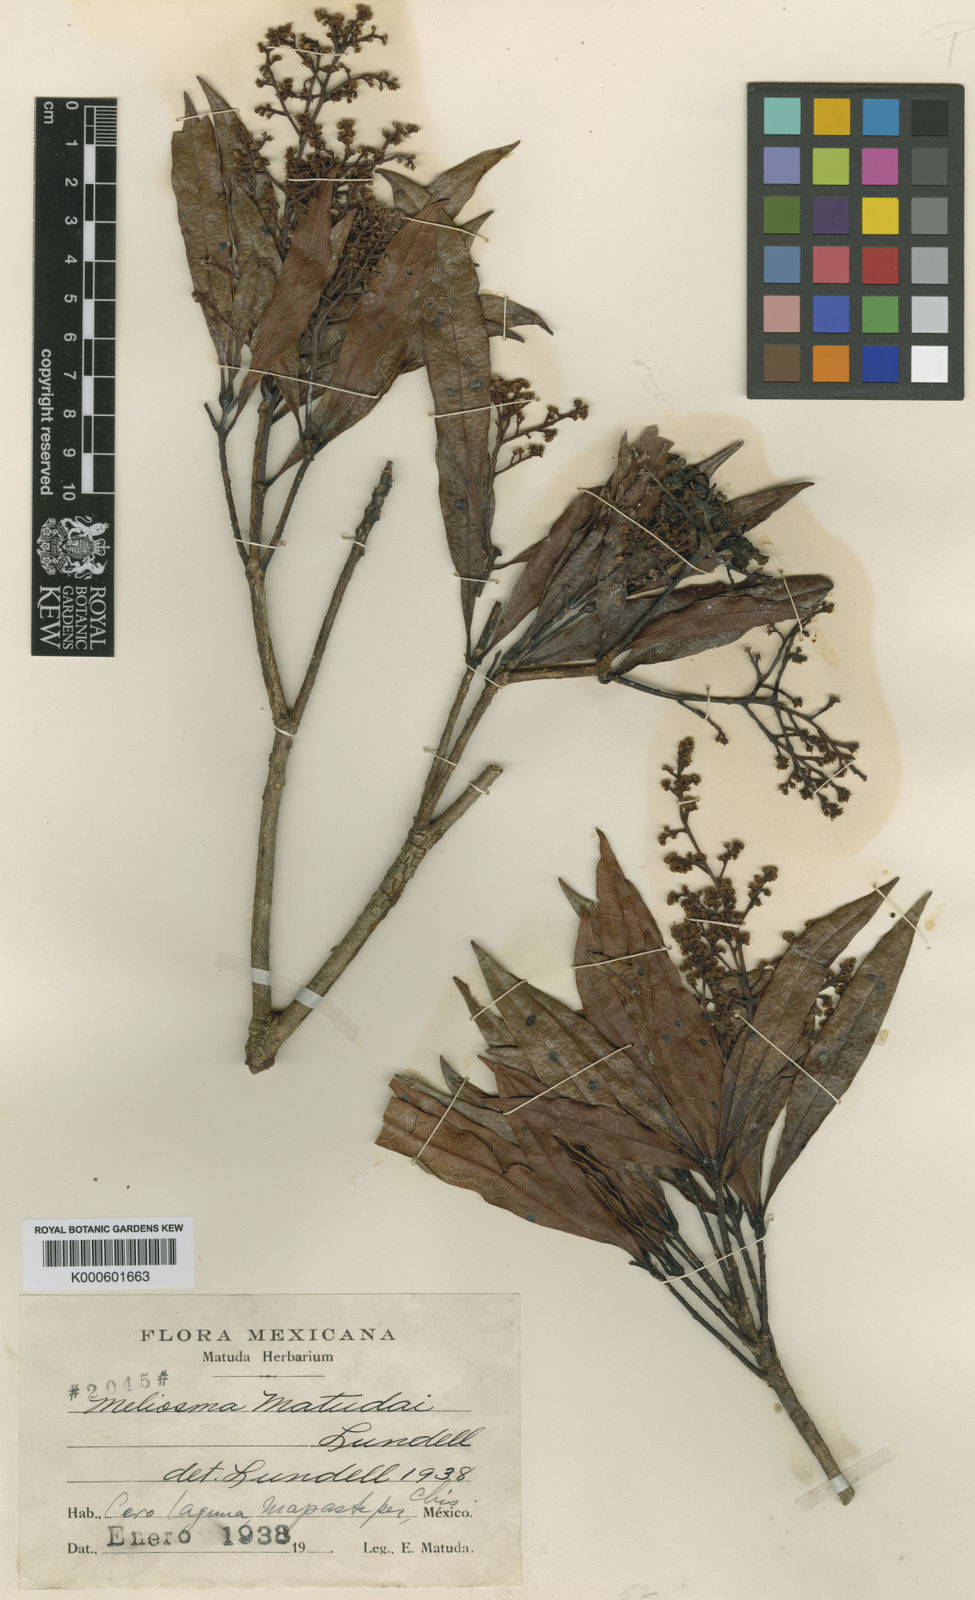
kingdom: Plantae
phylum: Tracheophyta
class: Magnoliopsida
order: Proteales
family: Sabiaceae
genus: Meliosma
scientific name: Meliosma dentata
